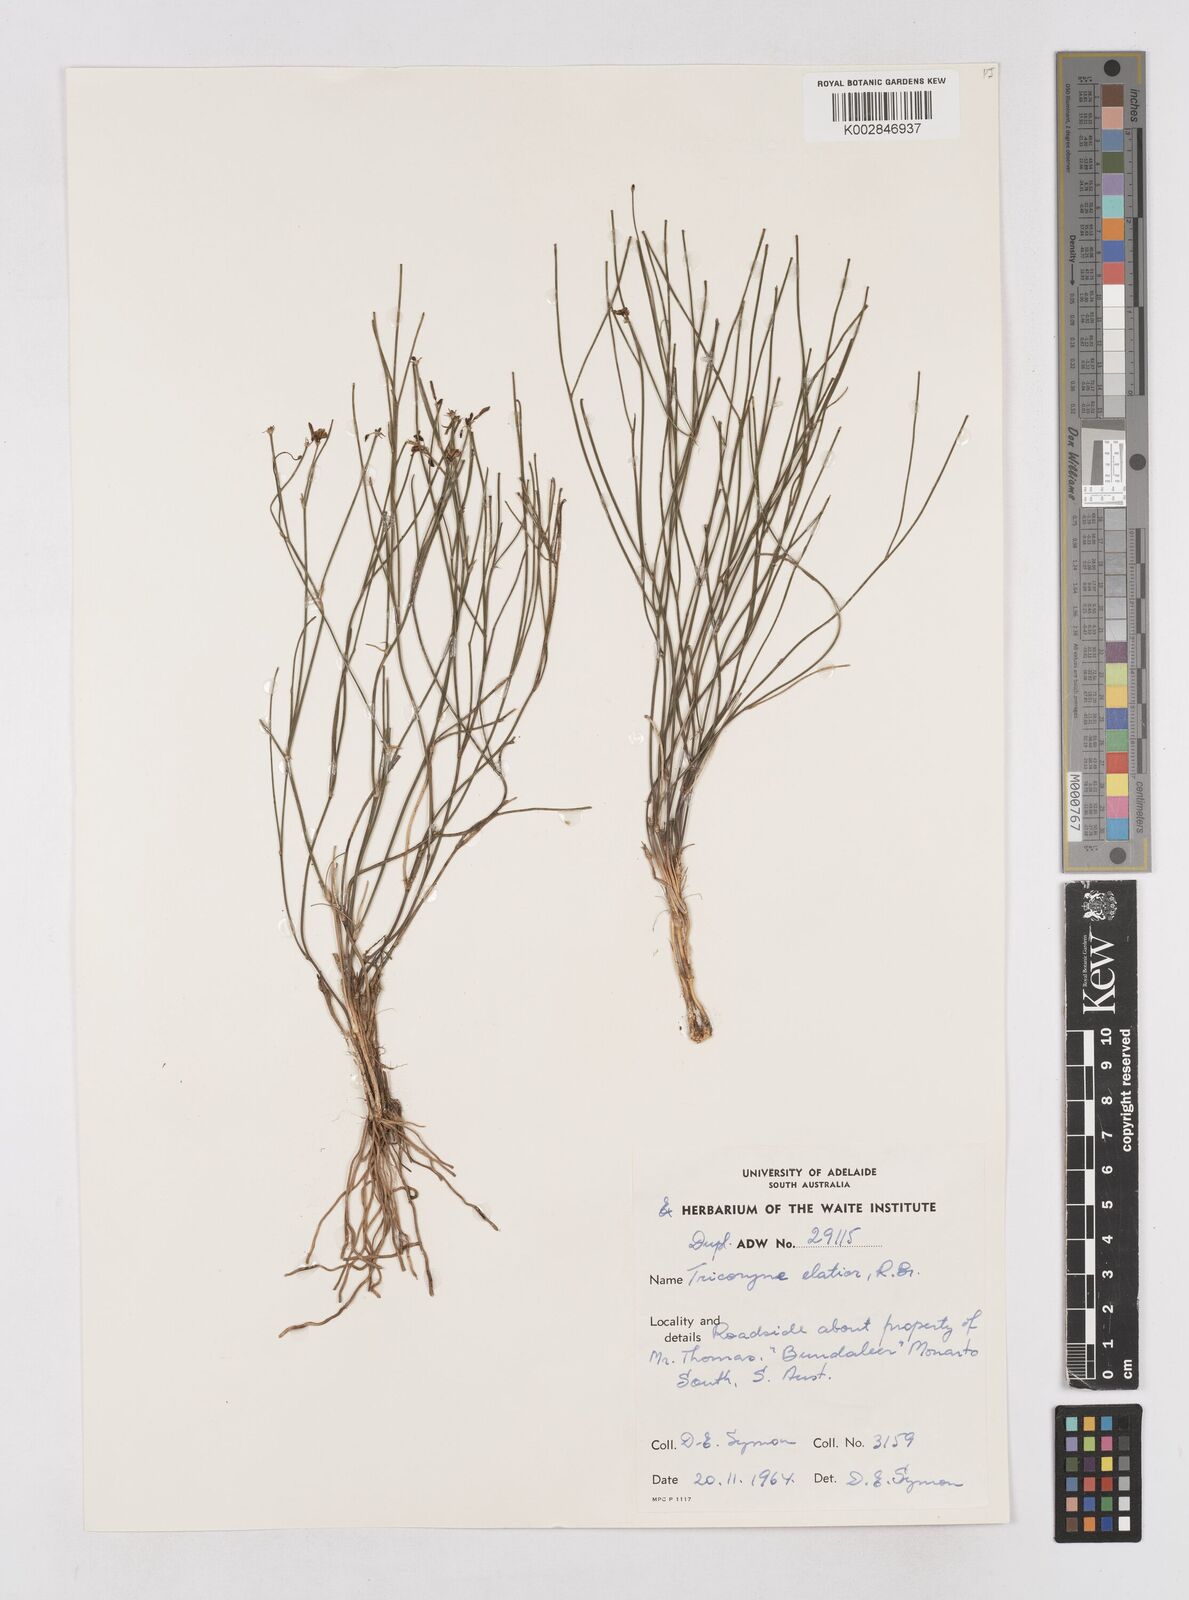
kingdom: Plantae
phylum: Tracheophyta
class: Liliopsida
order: Asparagales
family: Asphodelaceae
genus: Tricoryne
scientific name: Tricoryne elatior
